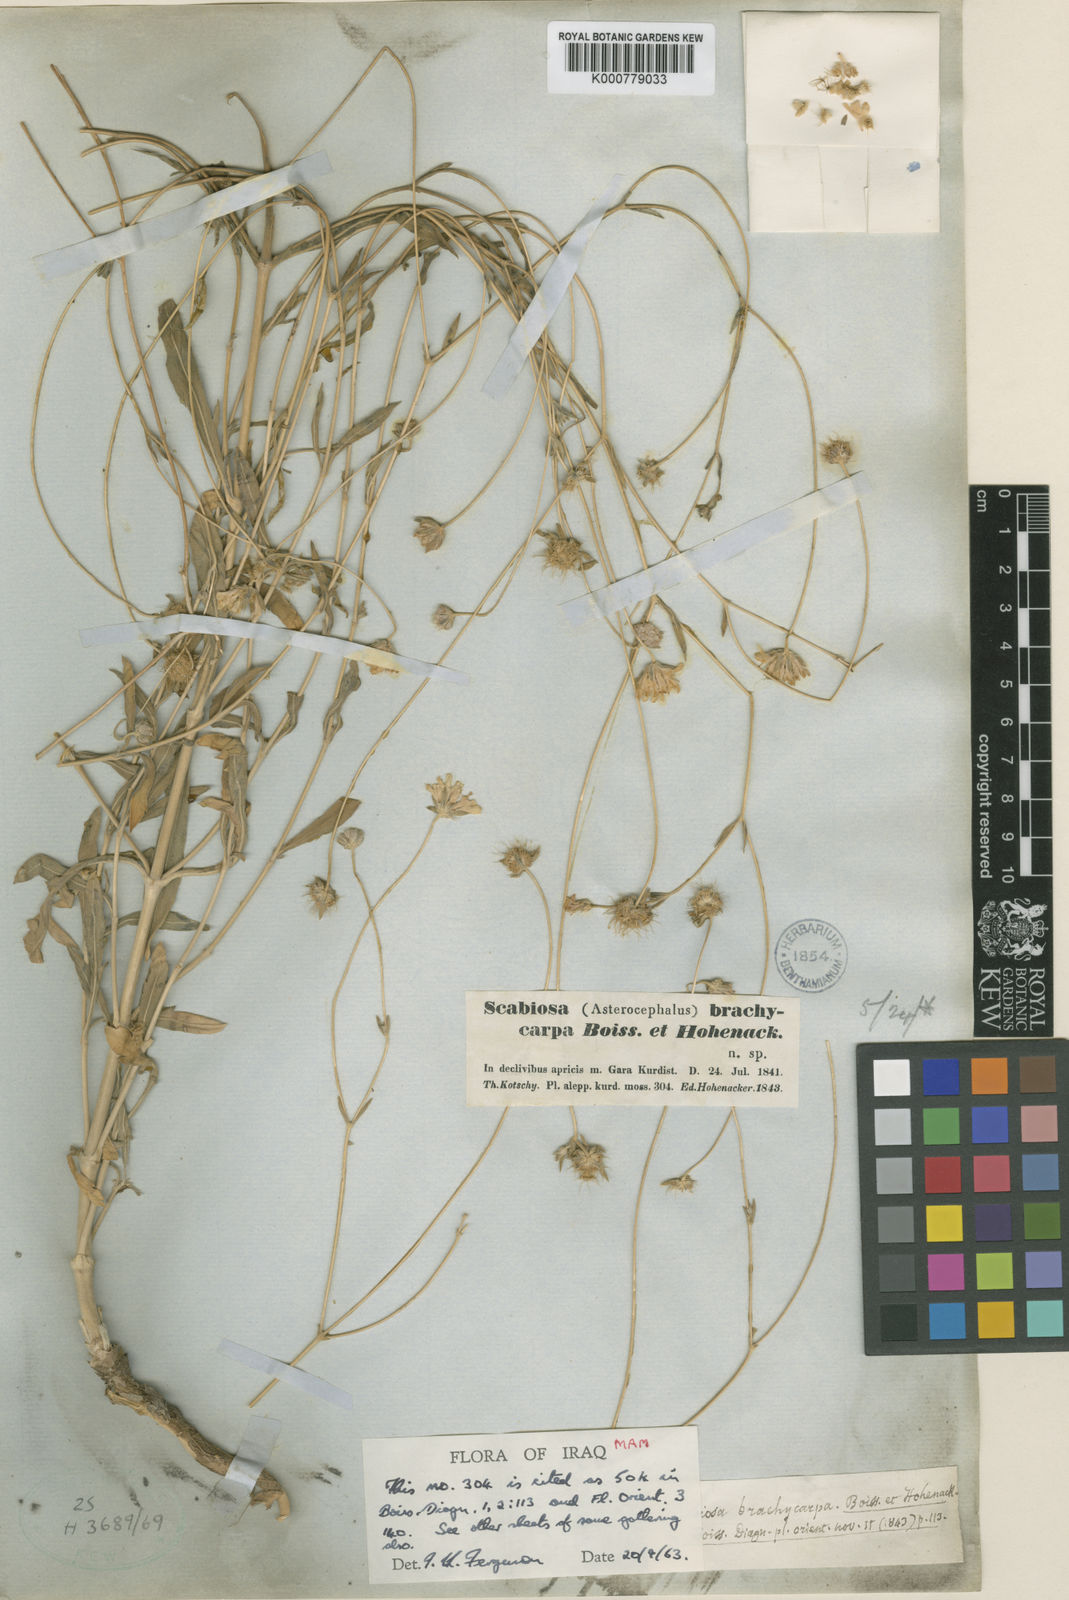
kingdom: Plantae
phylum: Tracheophyta
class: Magnoliopsida
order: Dipsacales
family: Caprifoliaceae
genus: Lomelosia
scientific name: Lomelosia brachycarpa
